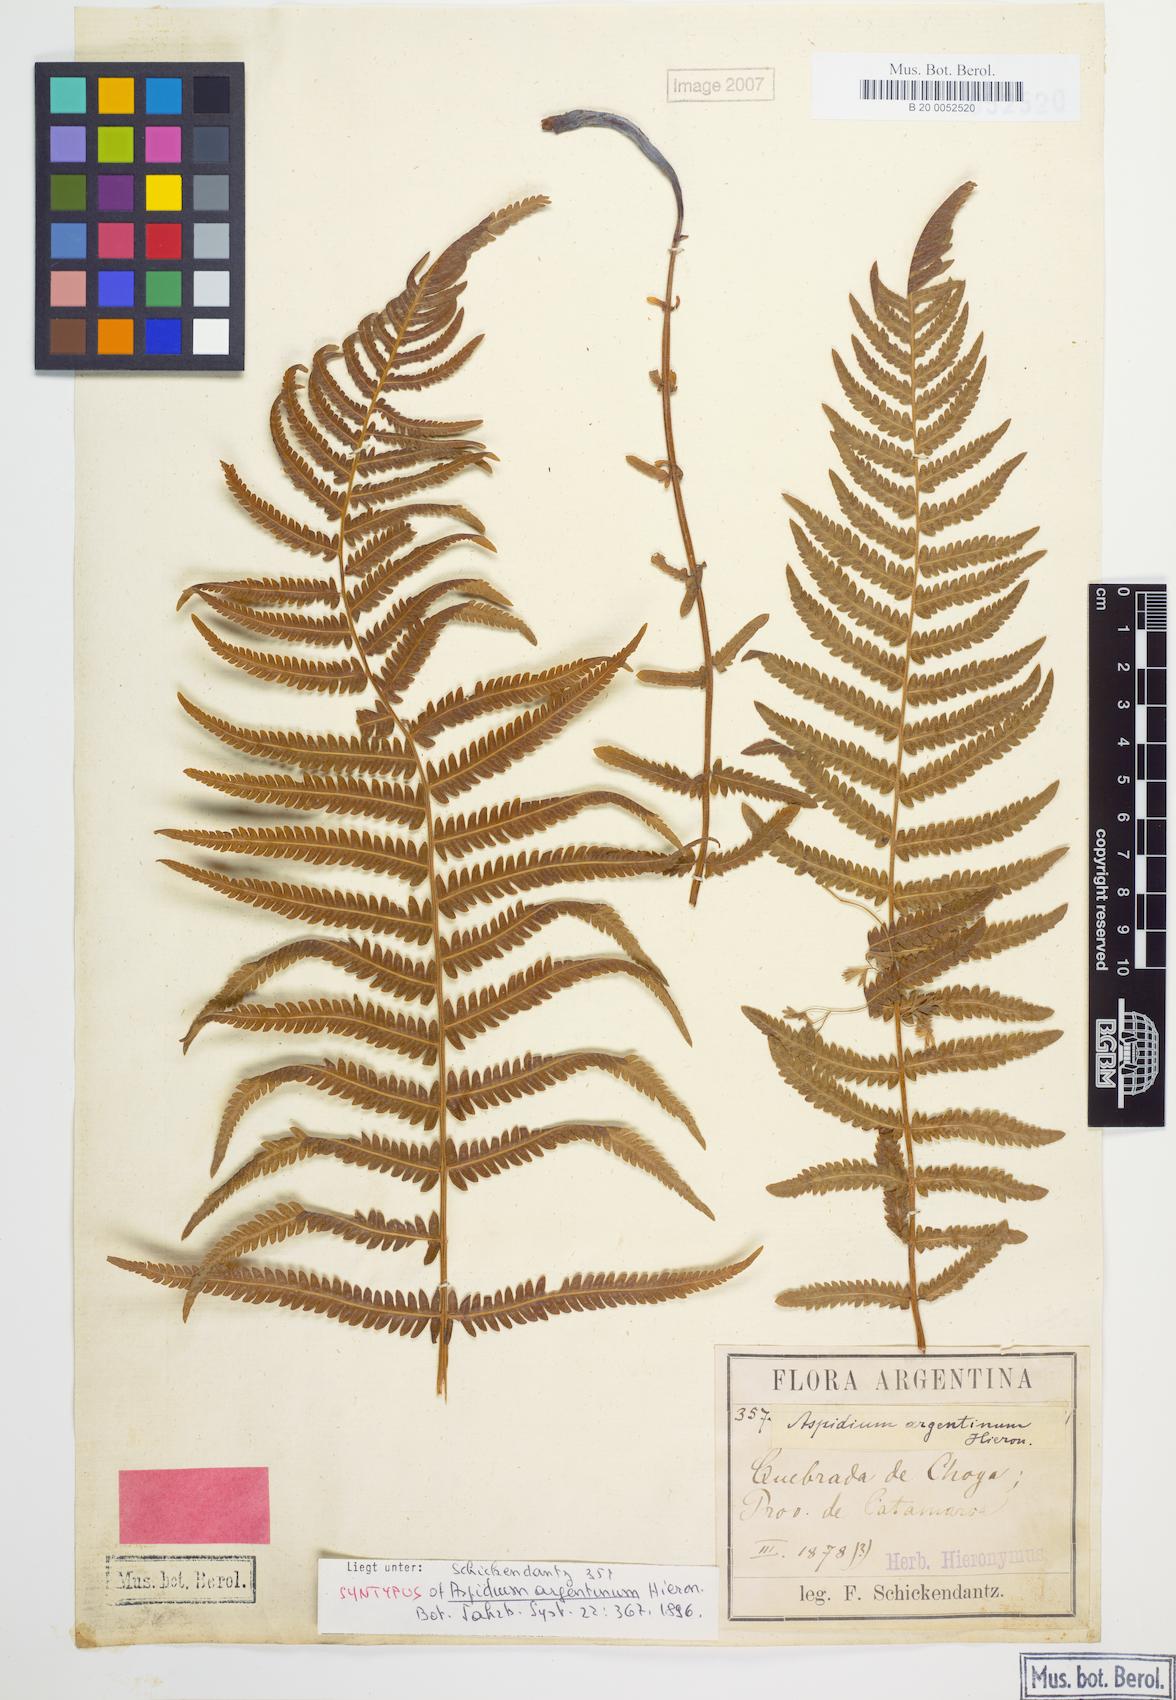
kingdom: Plantae
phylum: Tracheophyta
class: Polypodiopsida
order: Polypodiales
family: Thelypteridaceae
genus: Amauropelta
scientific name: Amauropelta argentina
